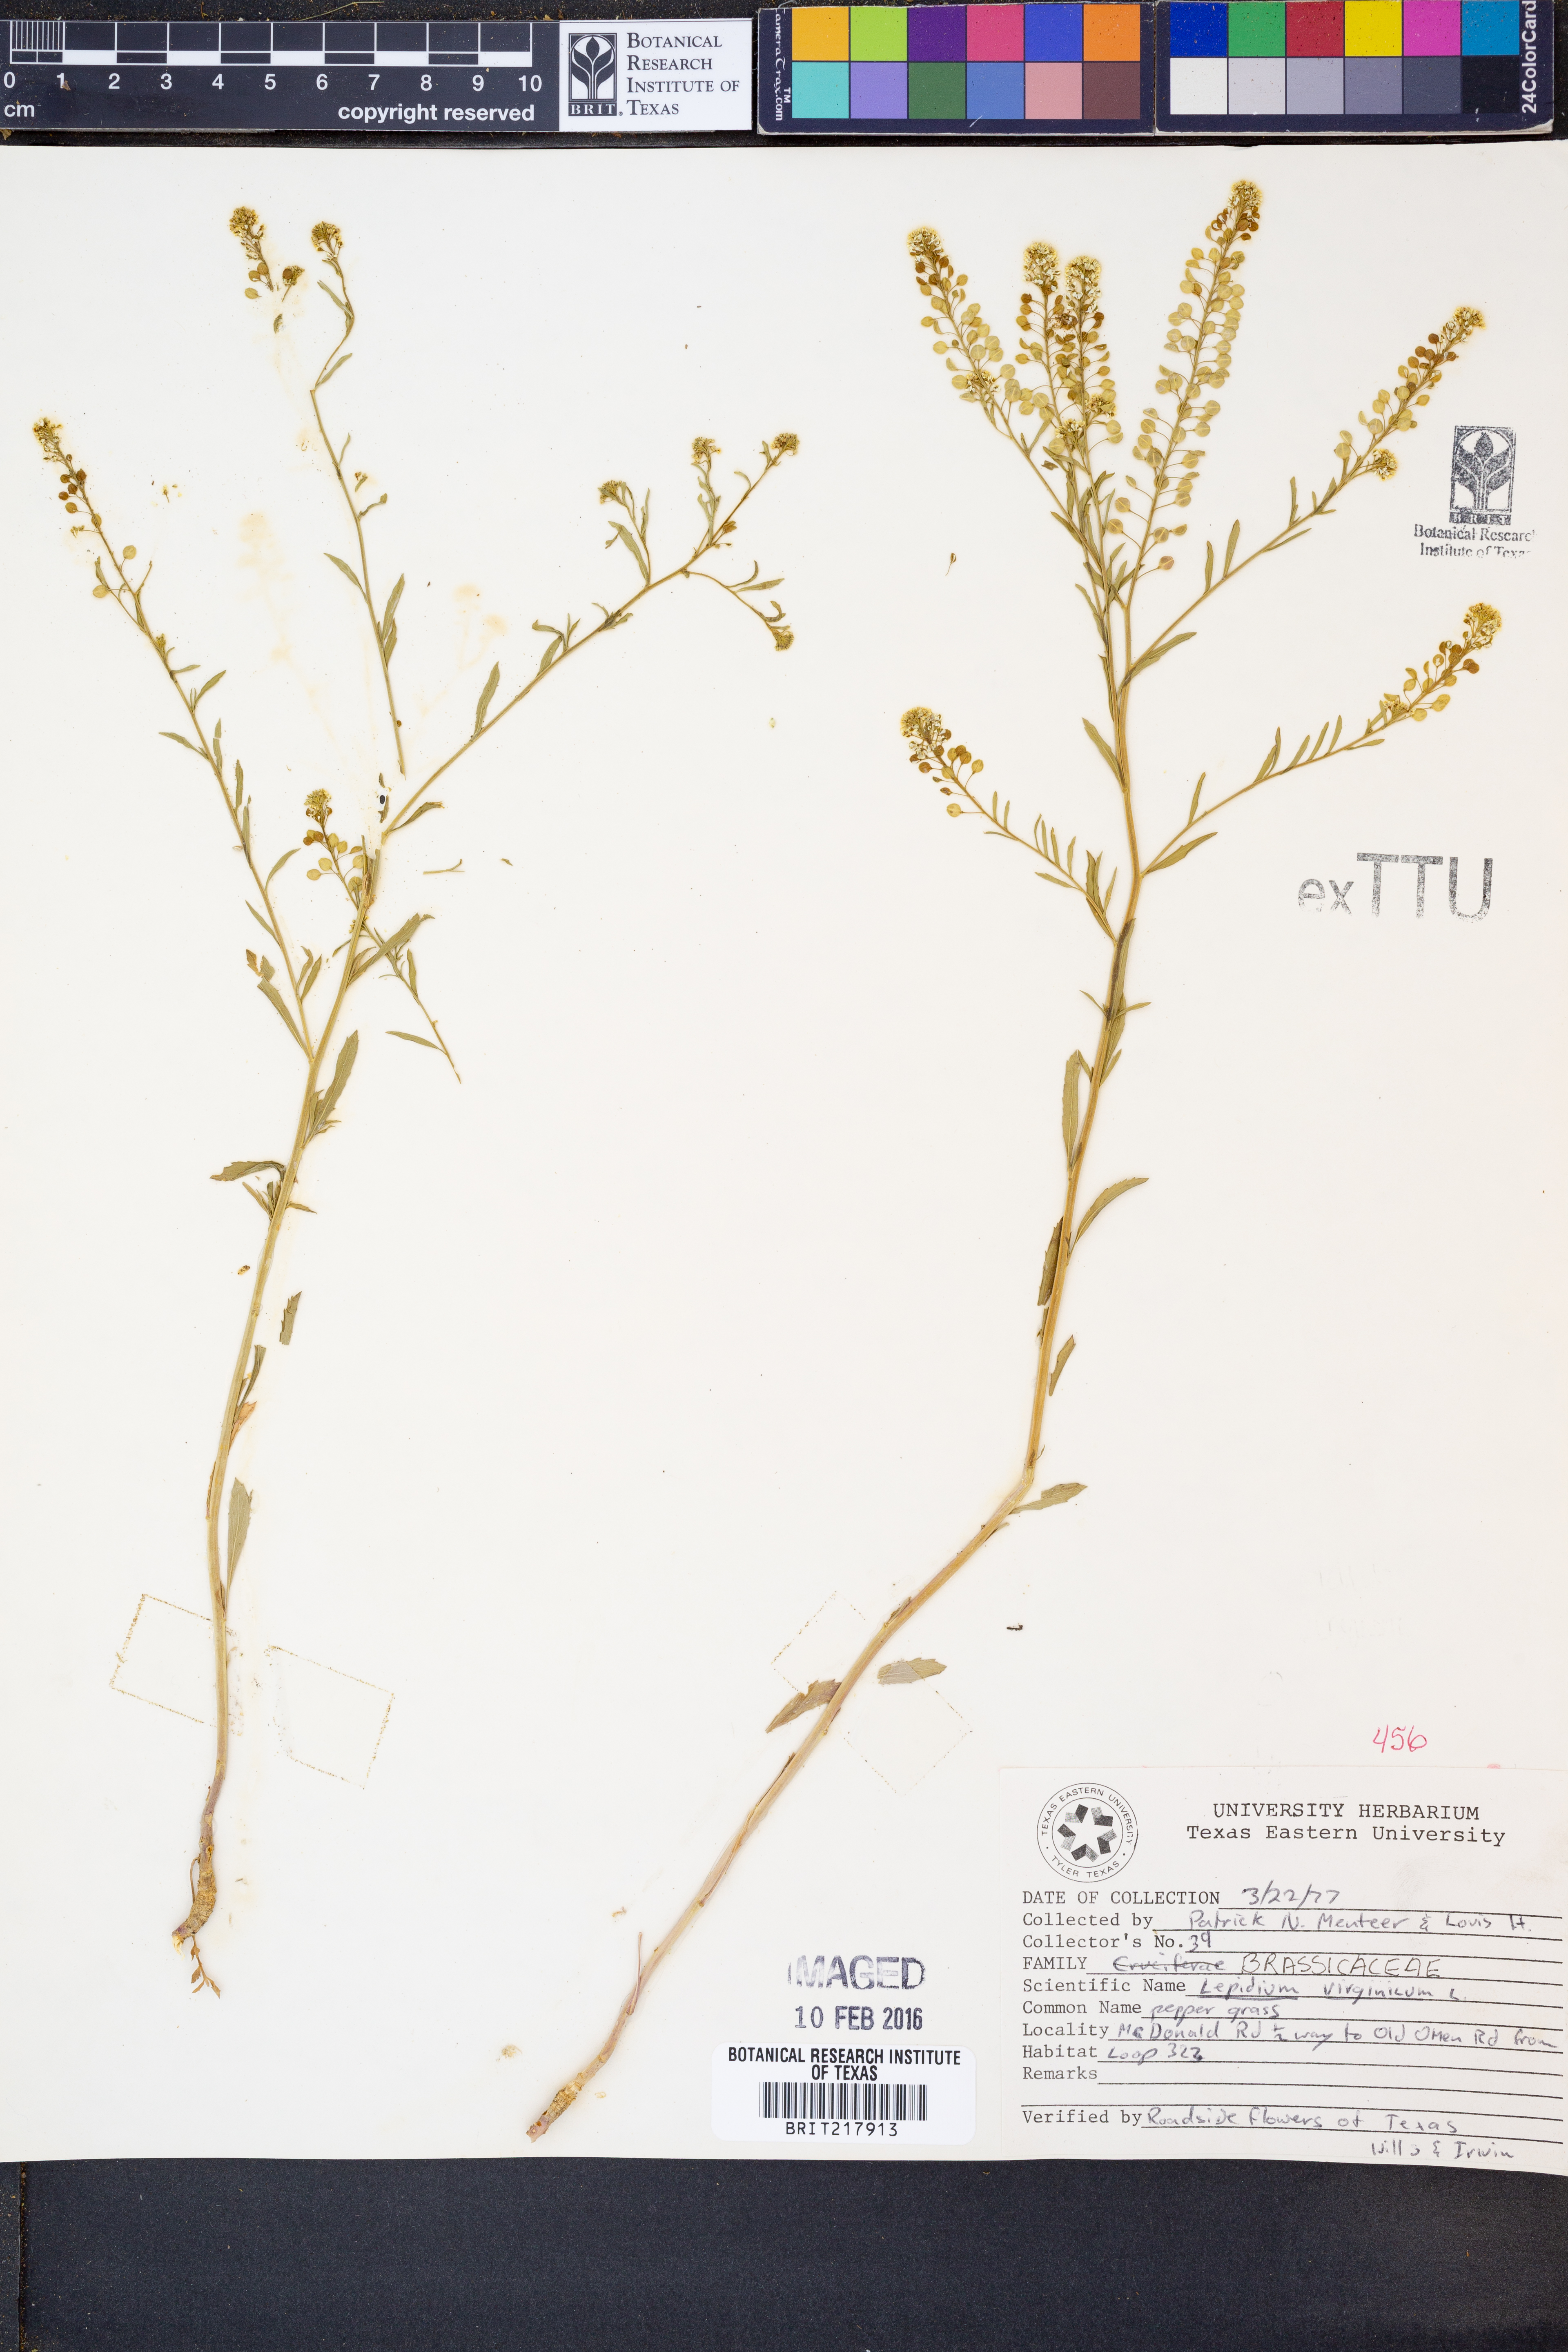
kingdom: Plantae
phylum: Tracheophyta
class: Magnoliopsida
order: Brassicales
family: Brassicaceae
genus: Lepidium
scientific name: Lepidium virginicum
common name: Least pepperwort
